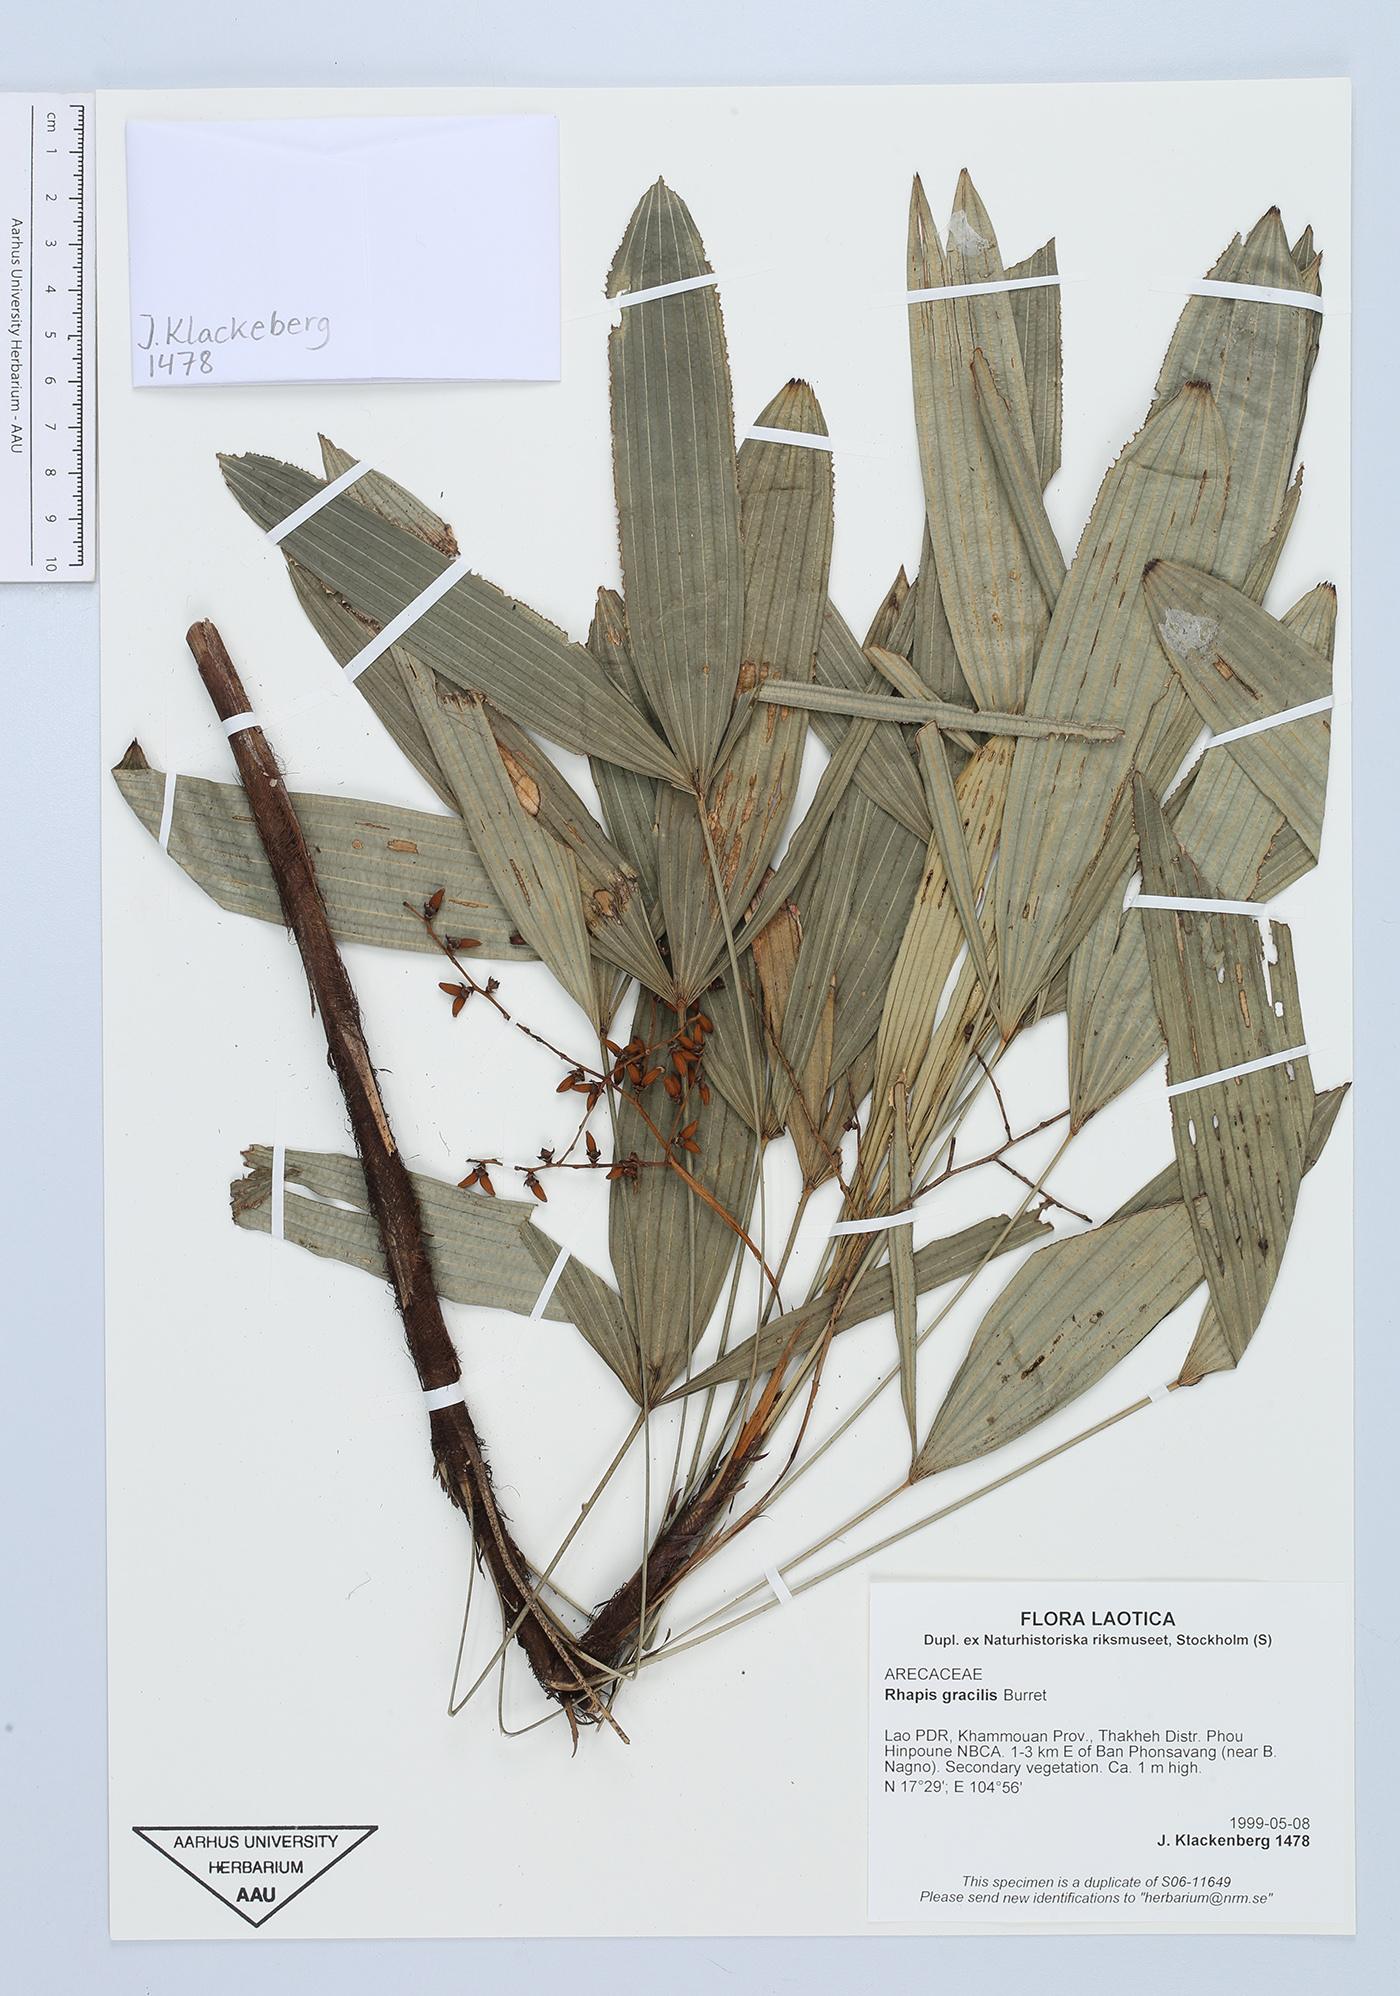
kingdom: Plantae
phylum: Tracheophyta
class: Liliopsida
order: Arecales
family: Arecaceae
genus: Rhapis
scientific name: Rhapis gracilis
